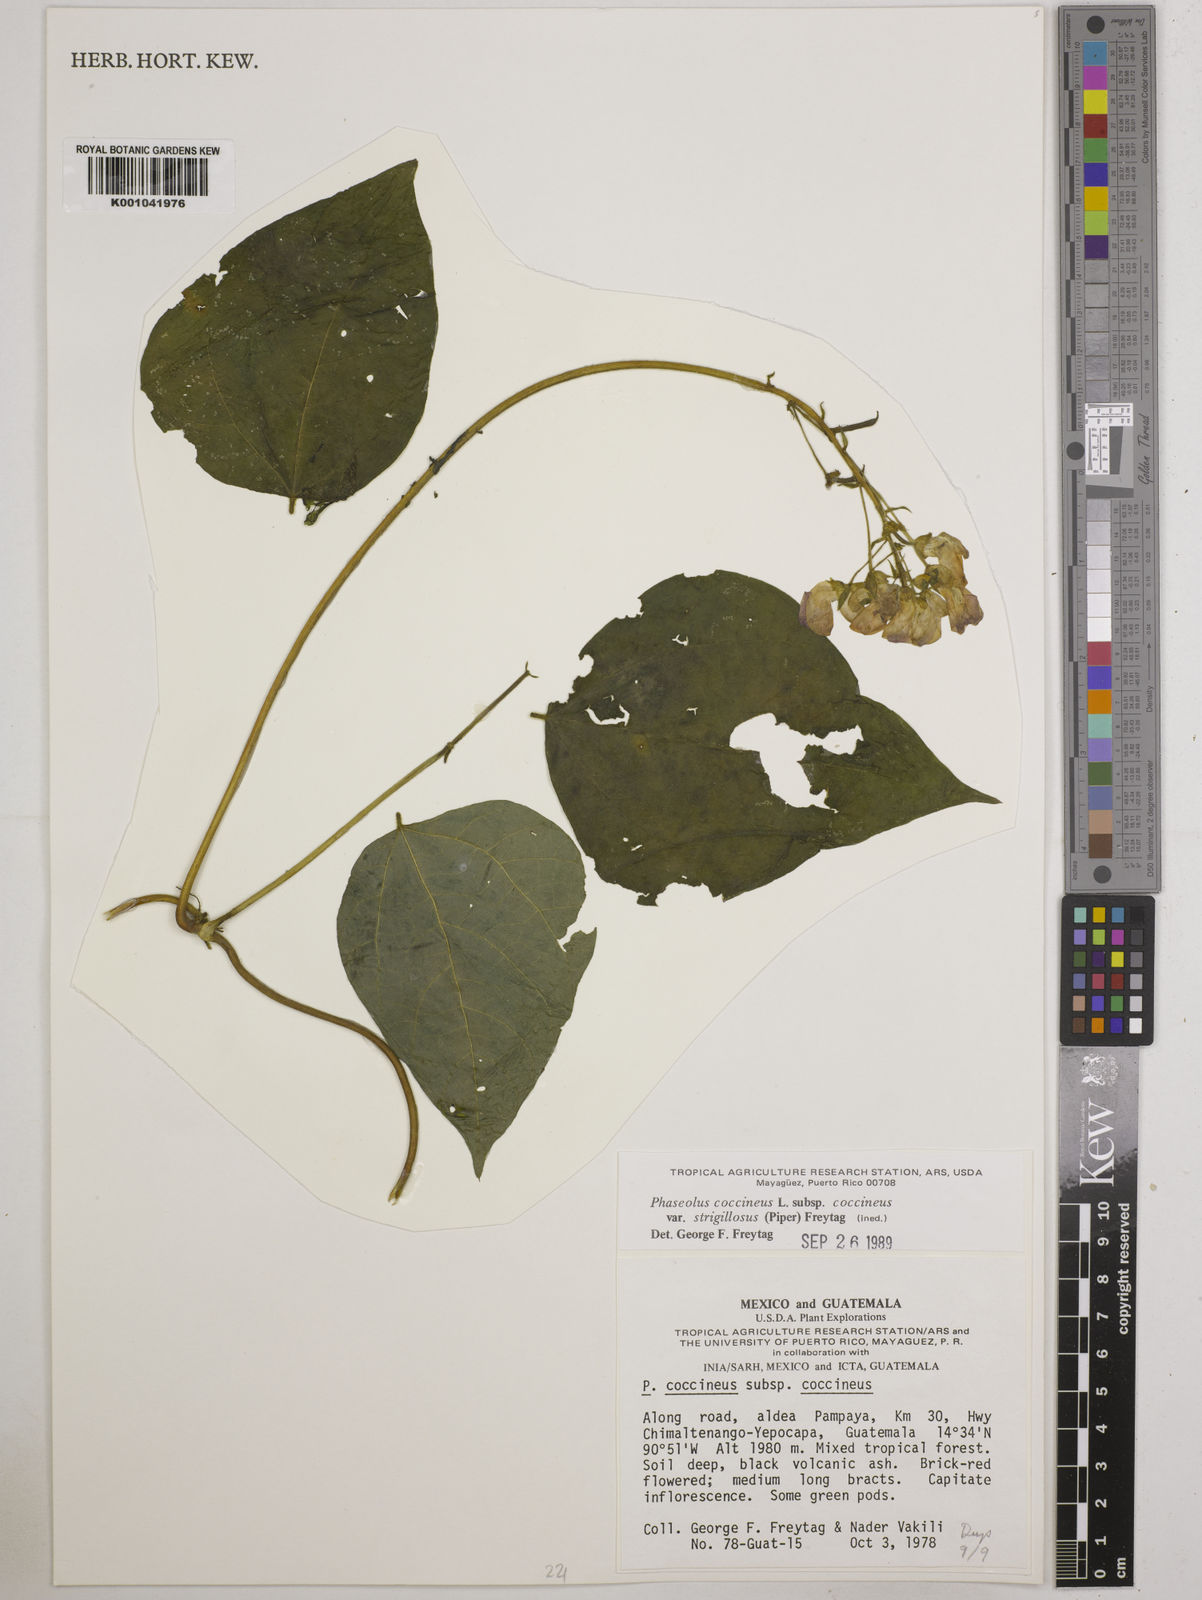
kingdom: Plantae
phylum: Tracheophyta
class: Magnoliopsida
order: Fabales
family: Fabaceae
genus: Phaseolus
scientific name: Phaseolus
